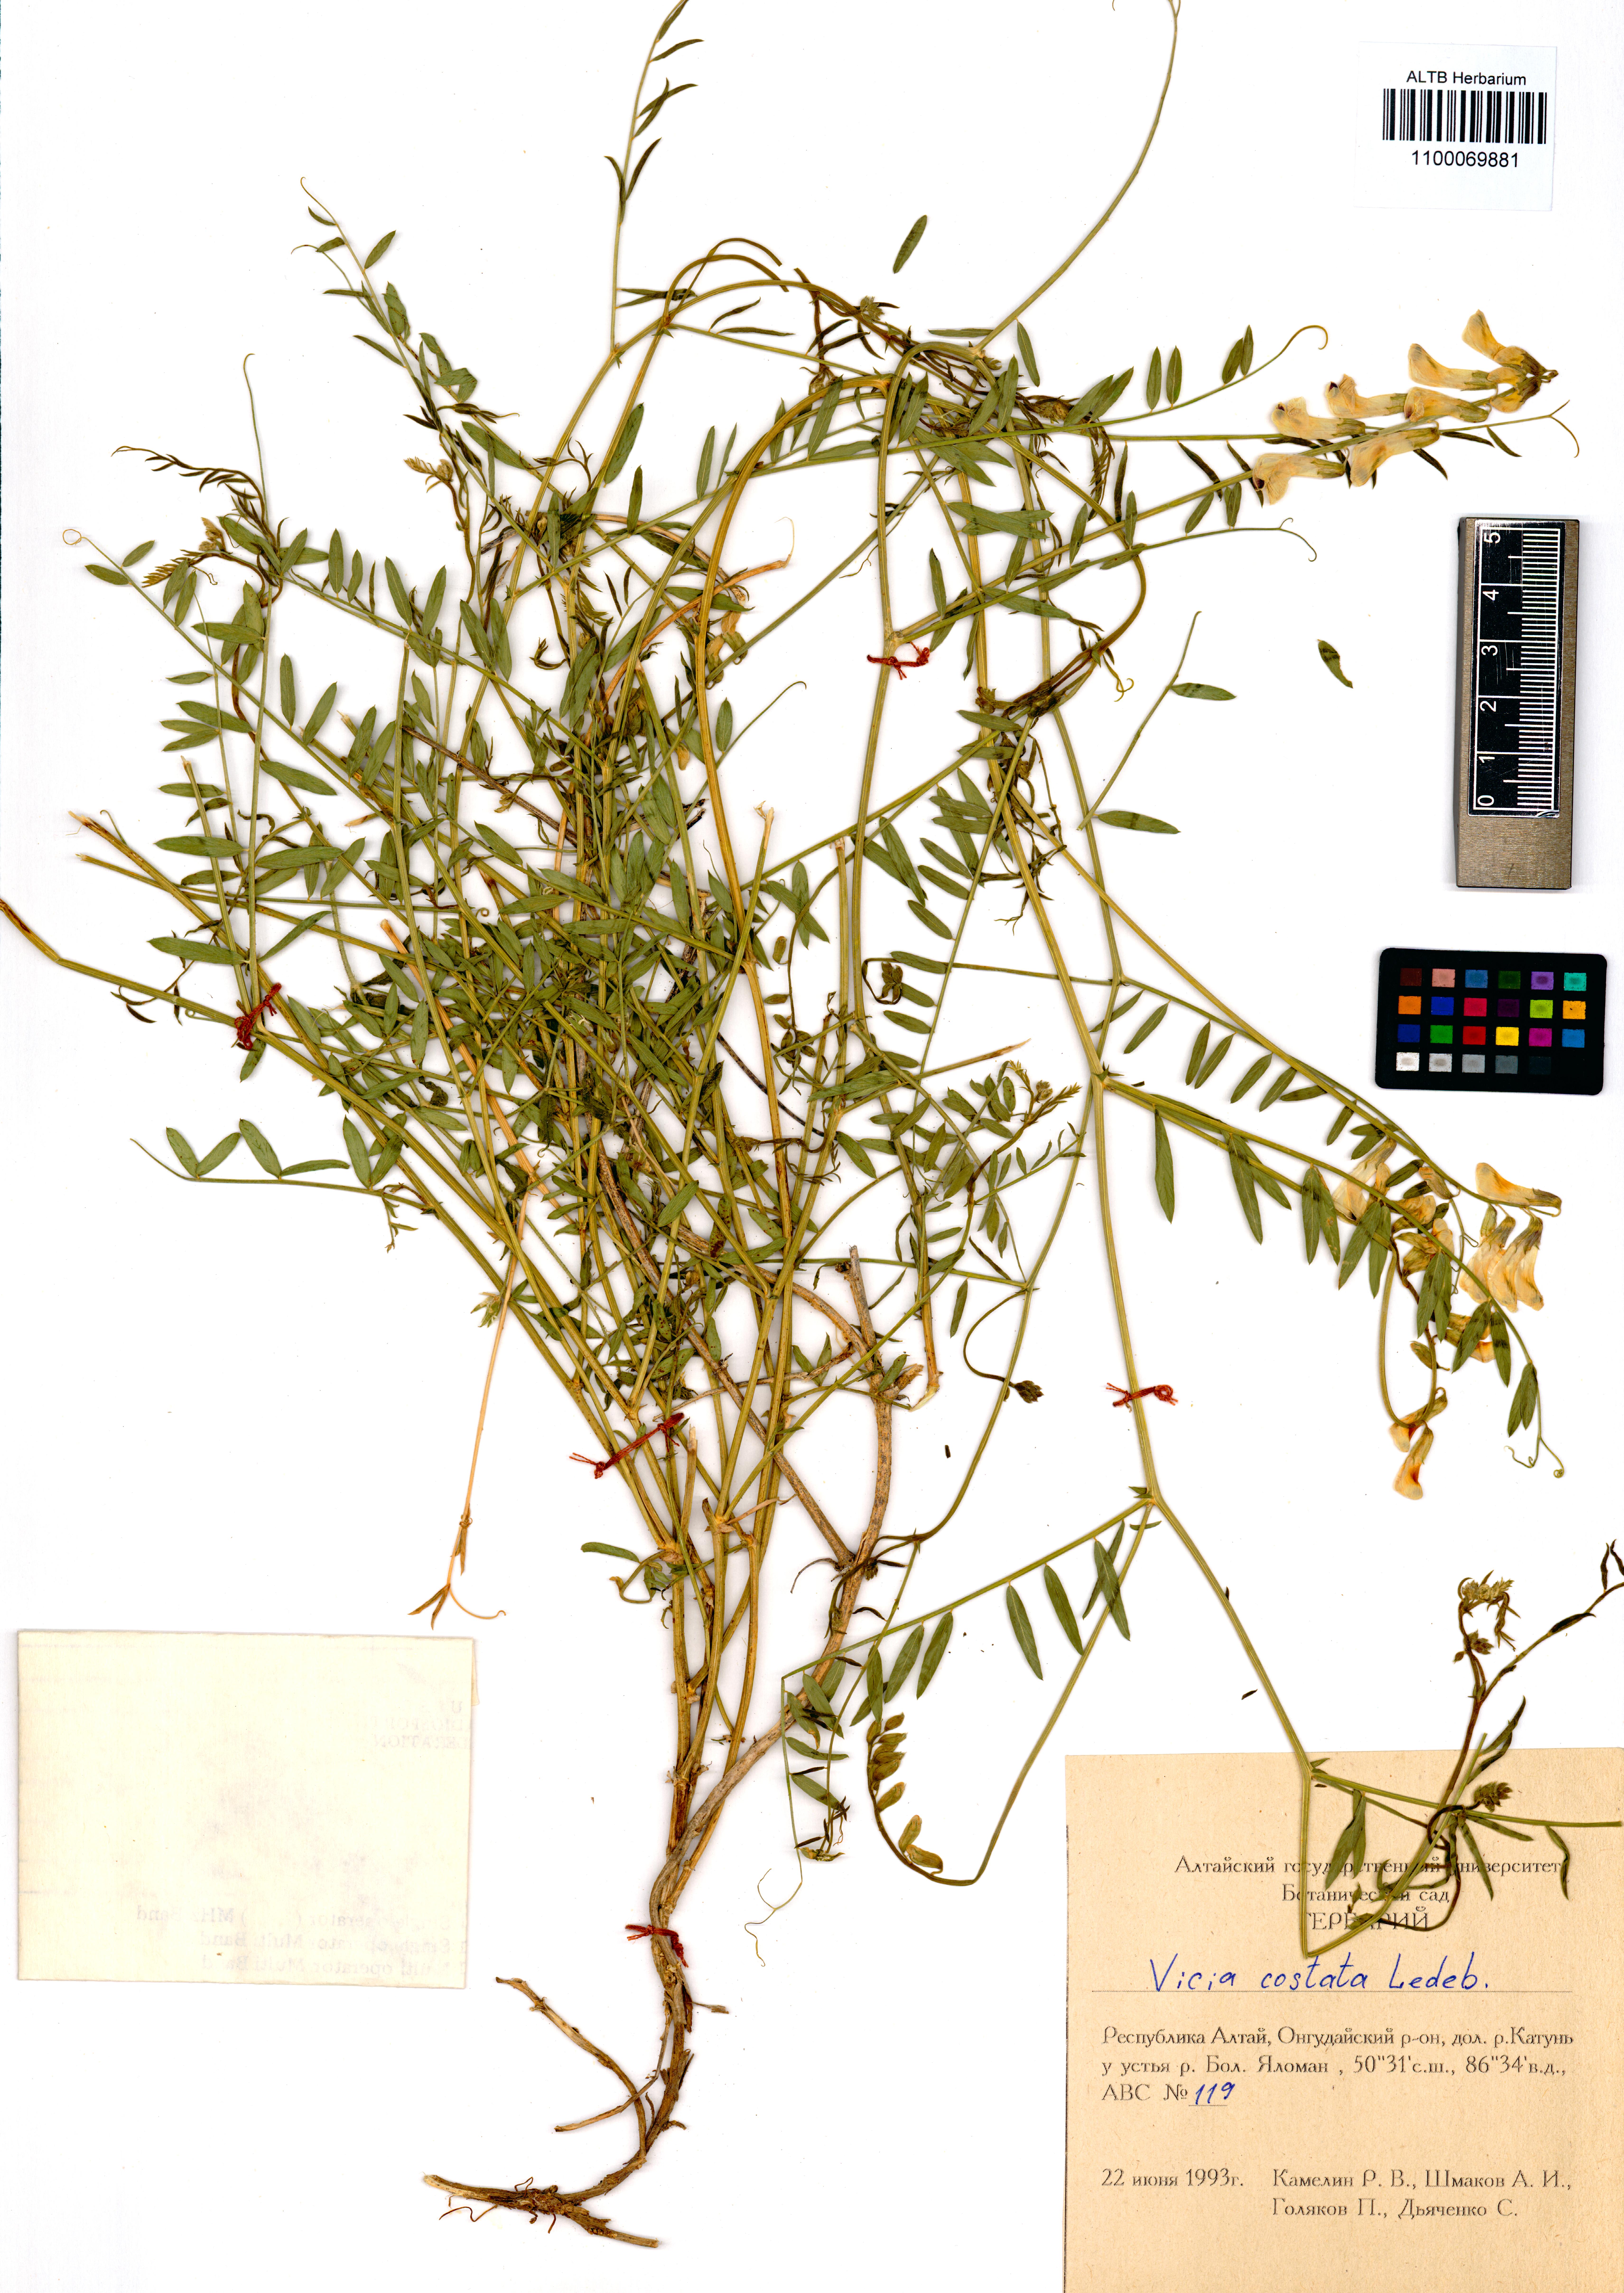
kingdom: Plantae
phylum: Tracheophyta
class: Magnoliopsida
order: Fabales
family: Fabaceae
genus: Vicia
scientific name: Vicia costata
